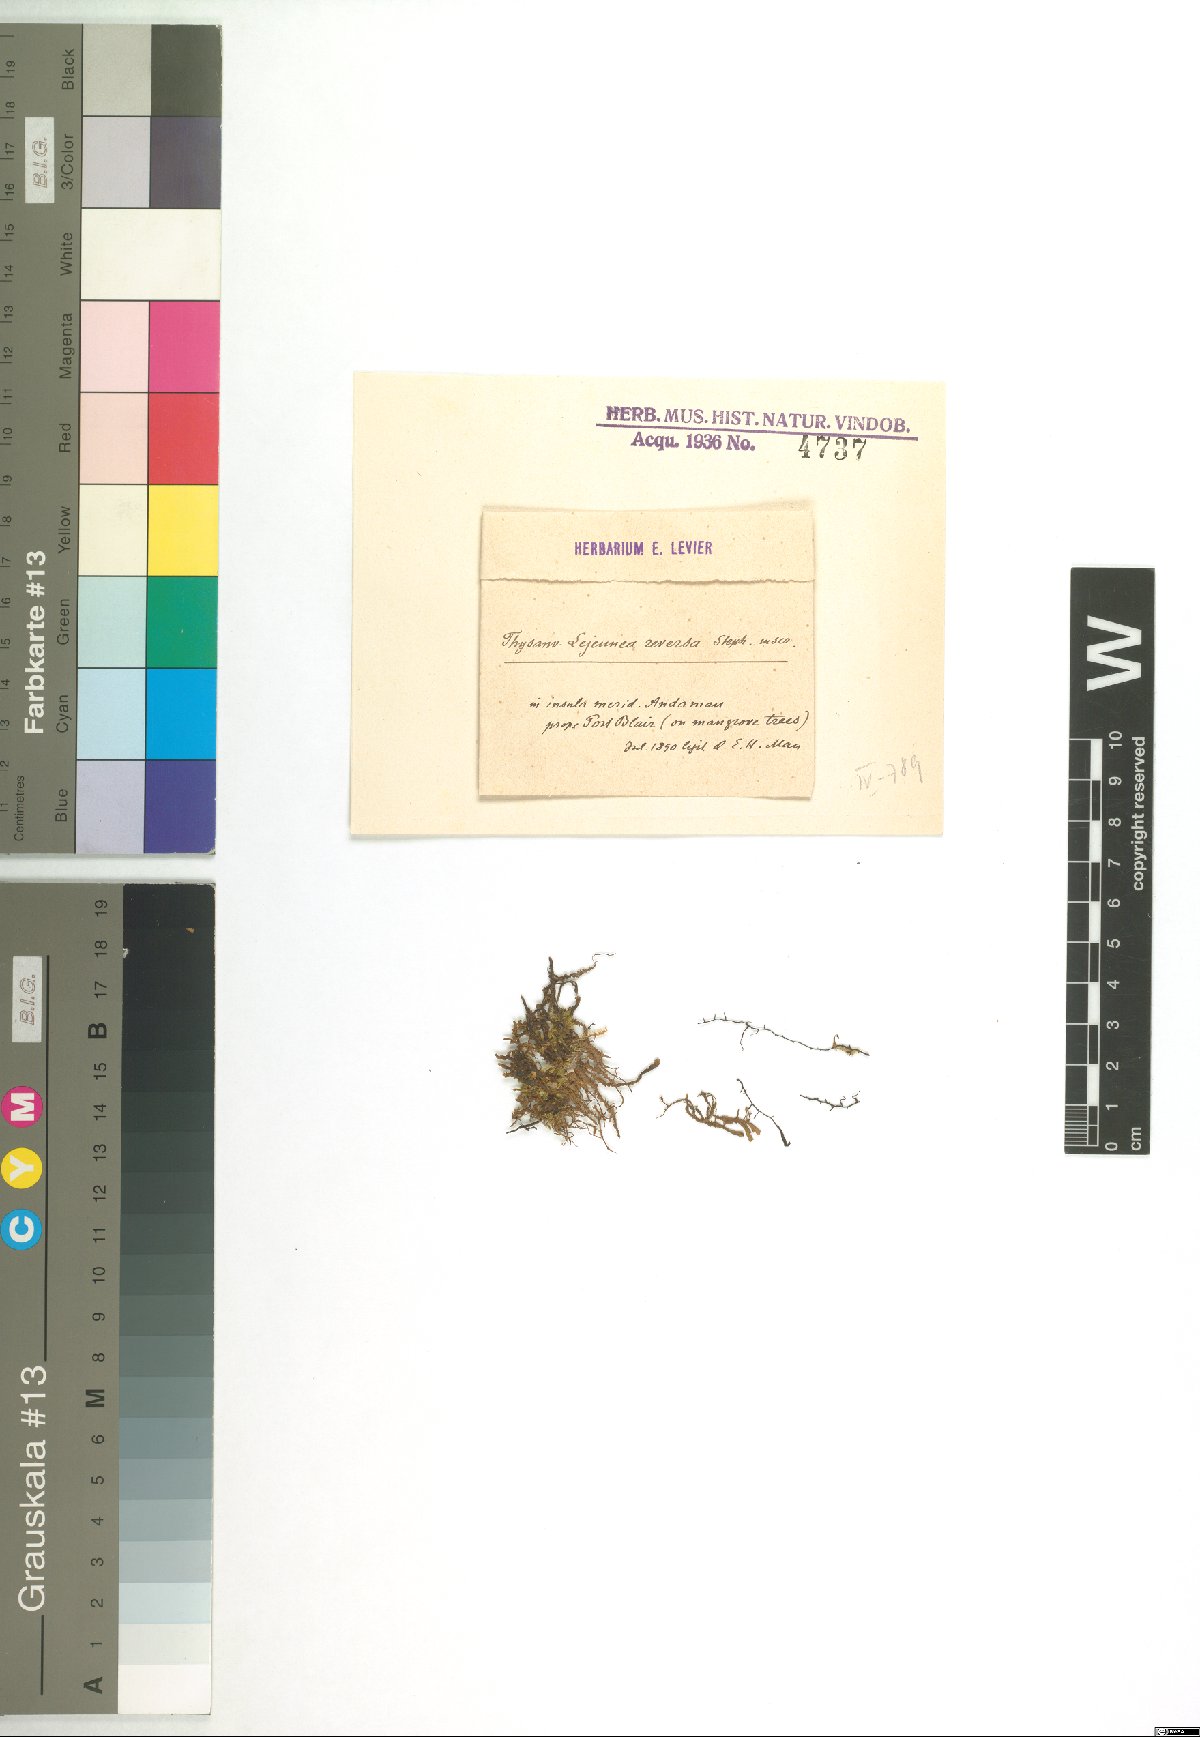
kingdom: Plantae
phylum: Marchantiophyta
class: Jungermanniopsida
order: Porellales
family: Lejeuneaceae
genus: Lejeunea
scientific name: Lejeunea
